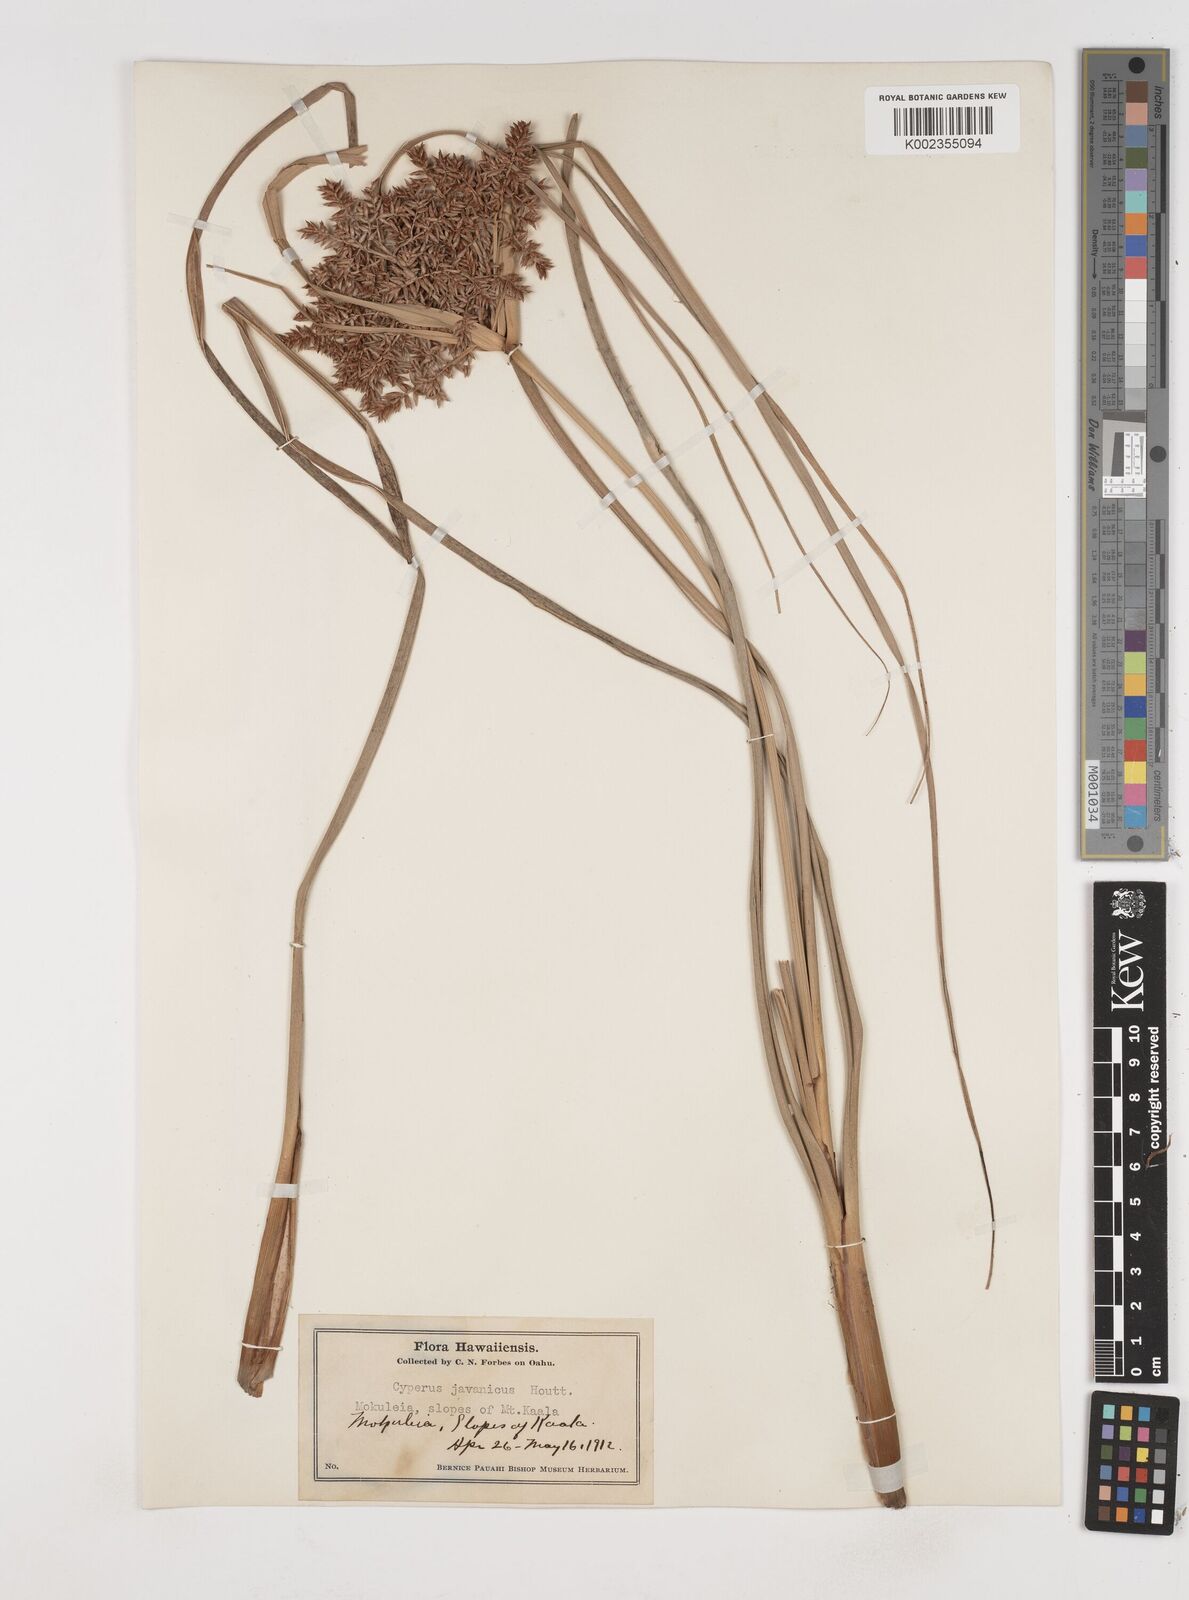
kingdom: Plantae
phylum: Tracheophyta
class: Liliopsida
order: Poales
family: Cyperaceae
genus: Cyperus
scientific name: Cyperus javanicus
